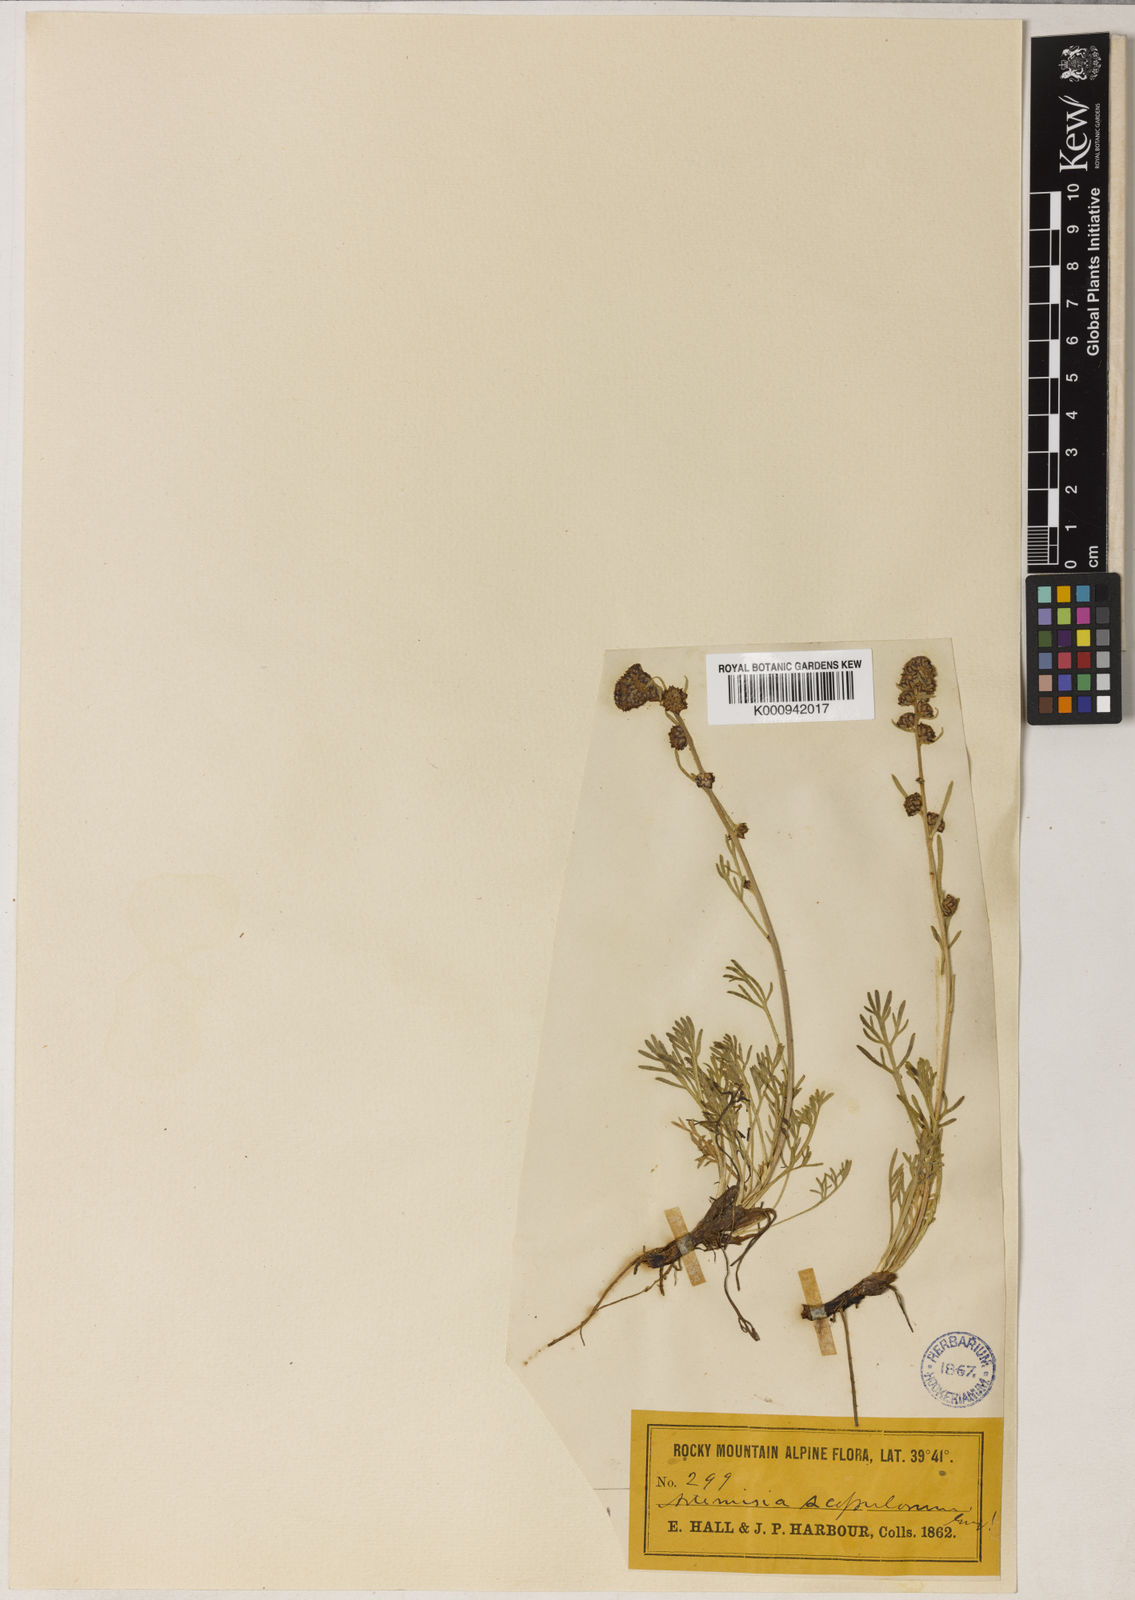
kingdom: Plantae
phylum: Tracheophyta
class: Magnoliopsida
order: Asterales
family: Asteraceae
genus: Artemisia
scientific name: Artemisia scopulorum
